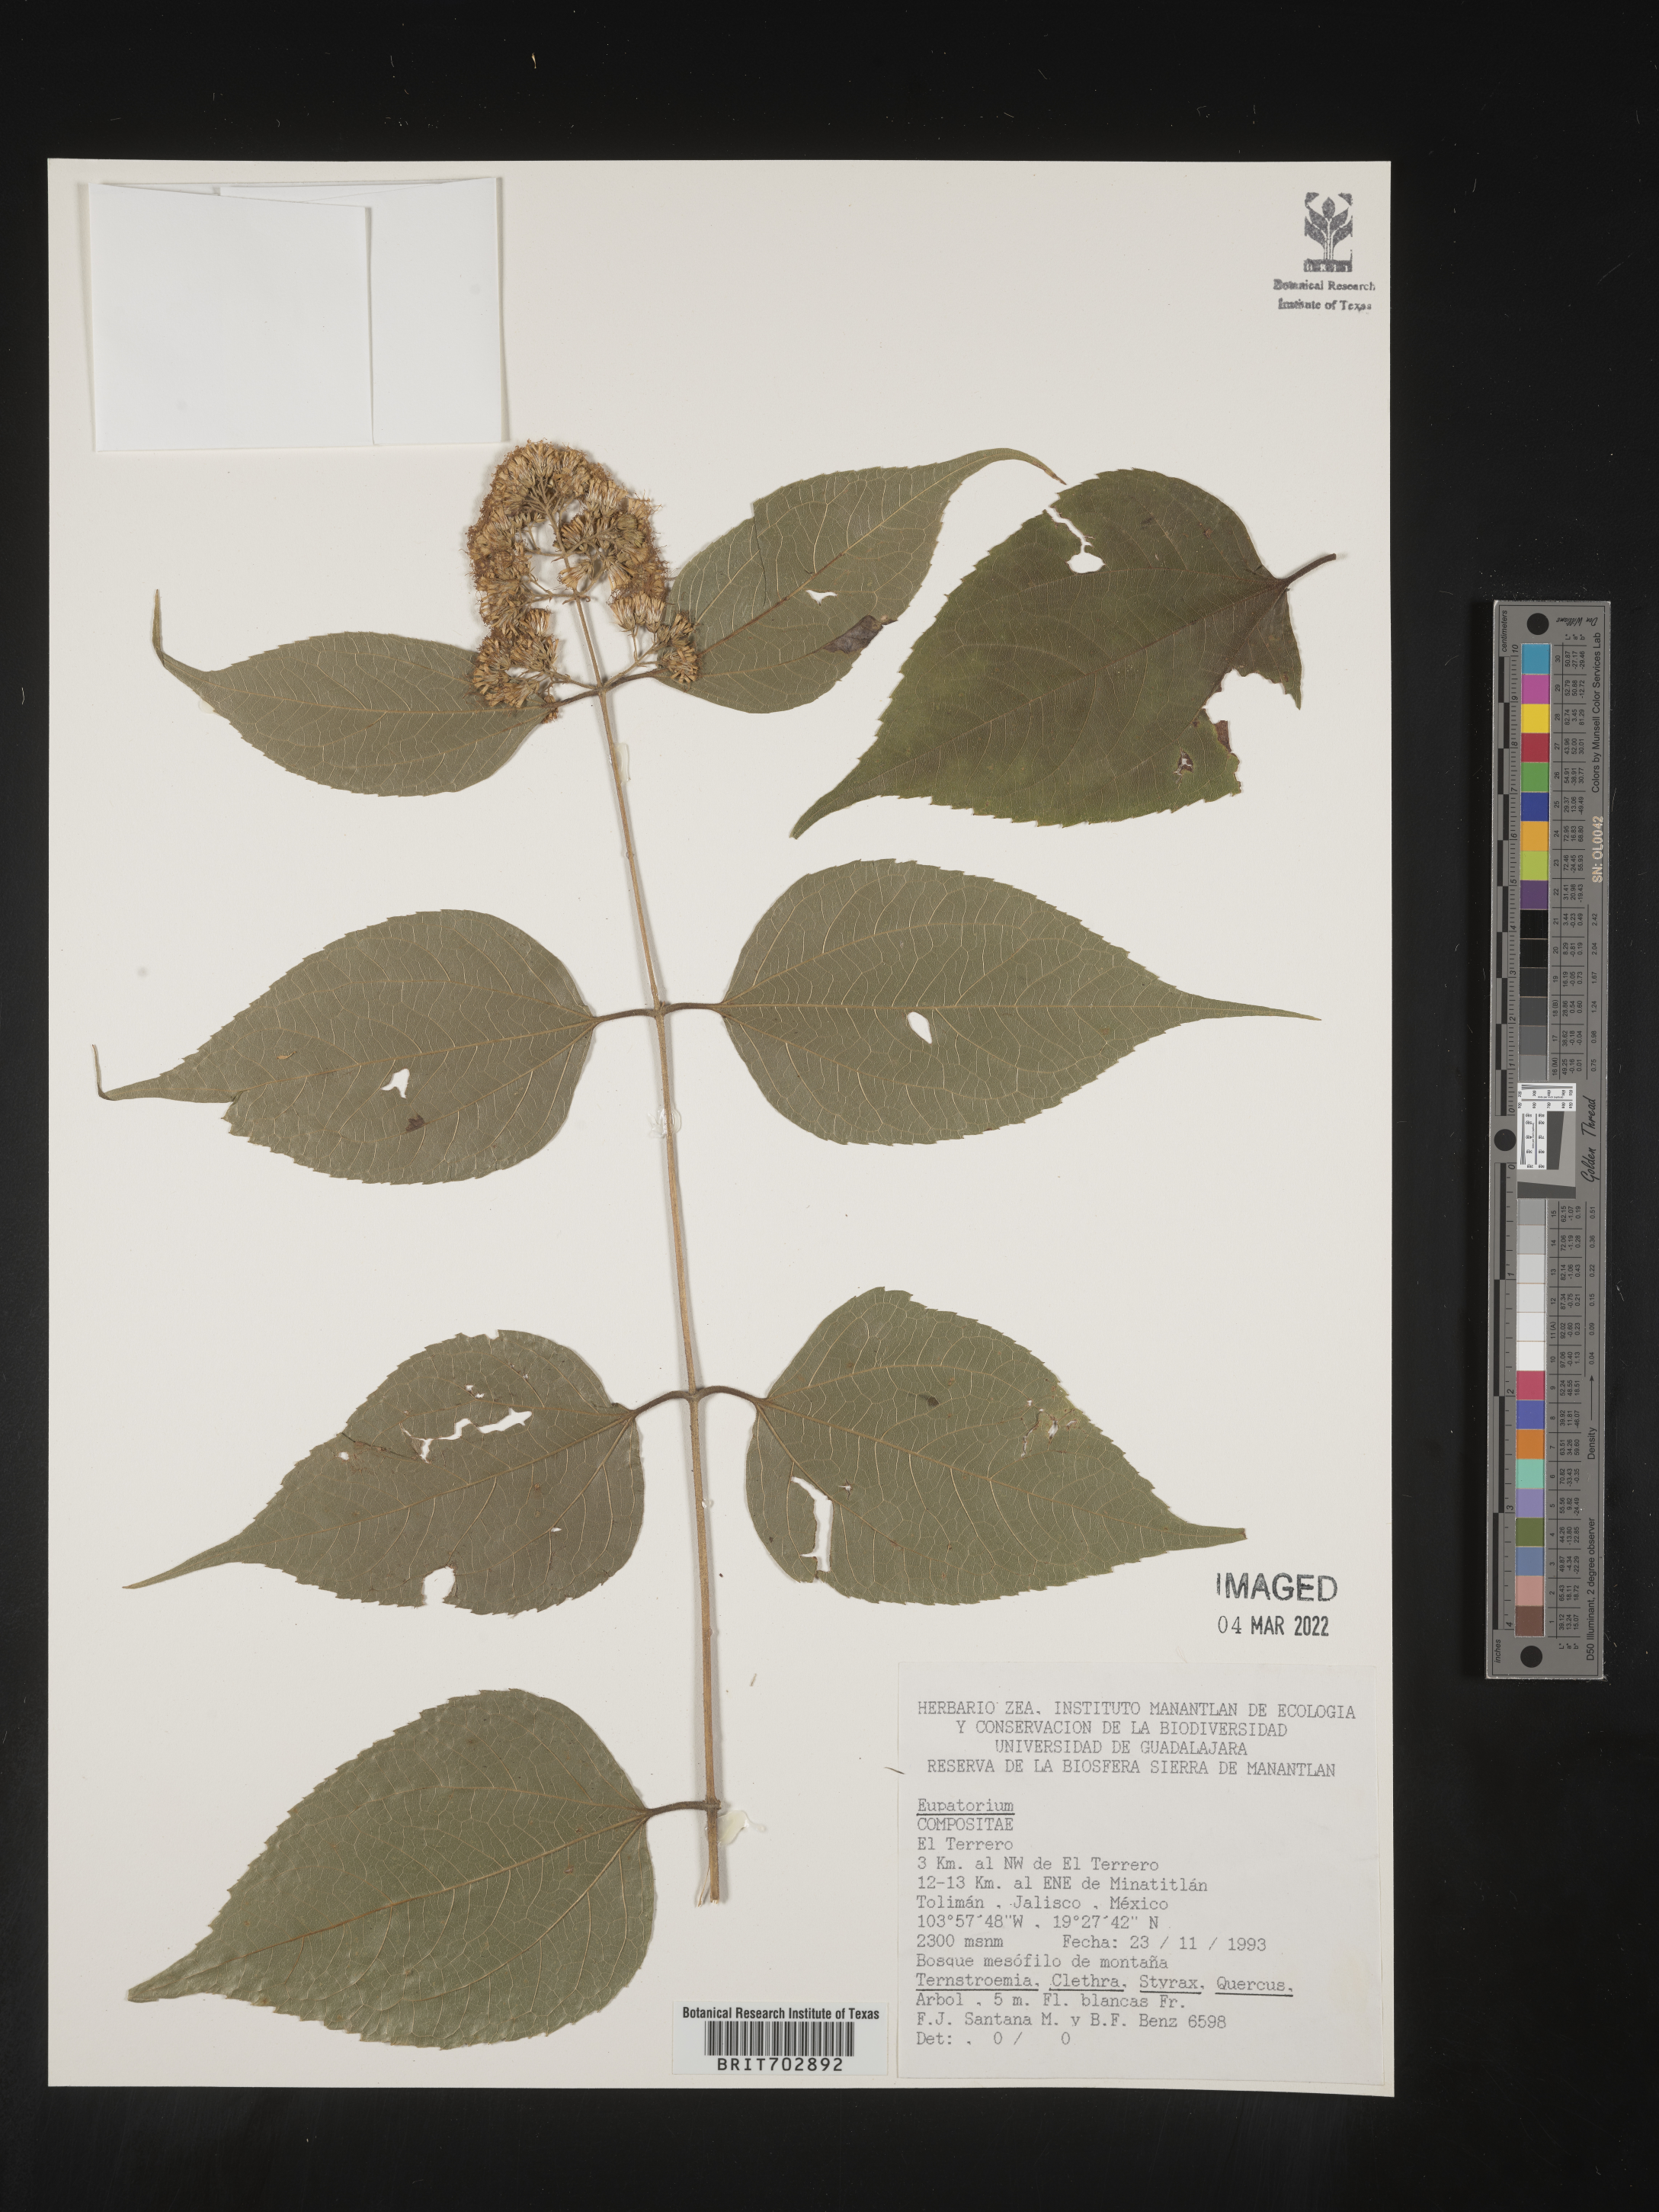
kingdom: Plantae
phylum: Tracheophyta
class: Magnoliopsida
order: Asterales
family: Asteraceae
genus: Eupatorium
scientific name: Eupatorium
